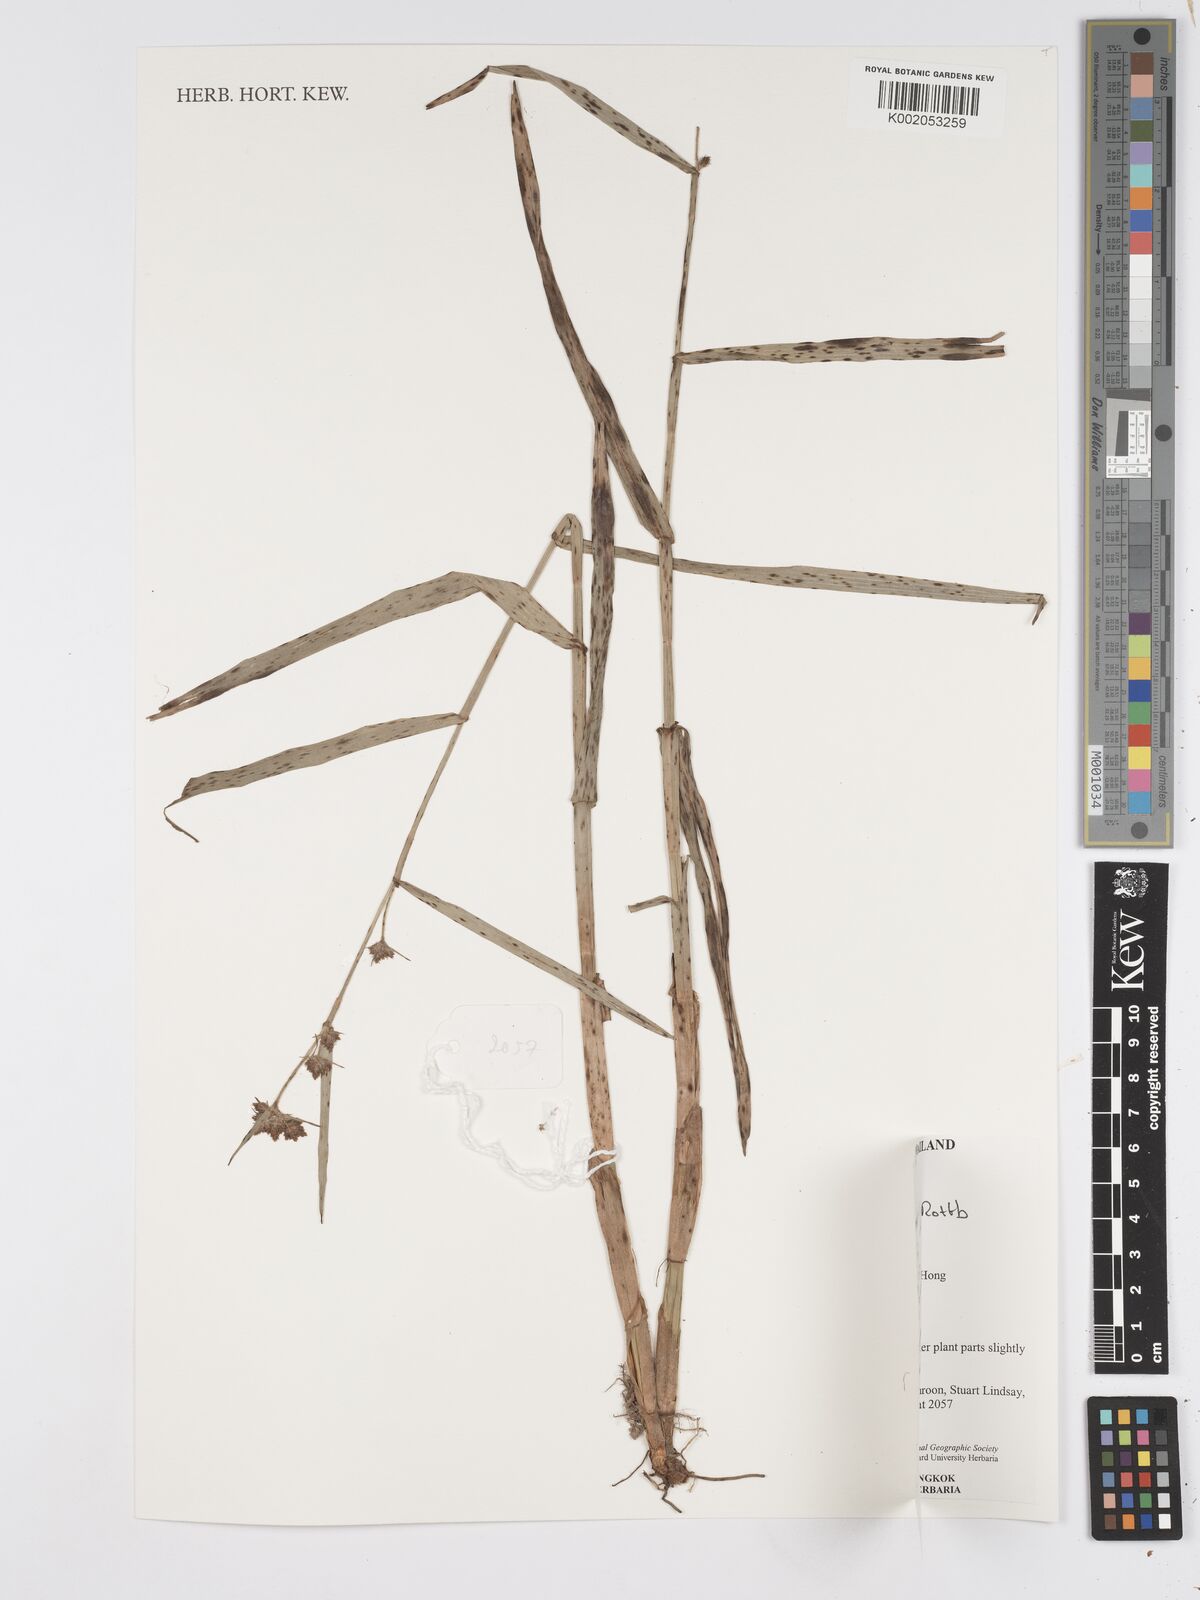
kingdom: Plantae
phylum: Tracheophyta
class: Liliopsida
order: Poales
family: Cyperaceae
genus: Fuirena
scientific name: Fuirena umbellata
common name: Yefen
